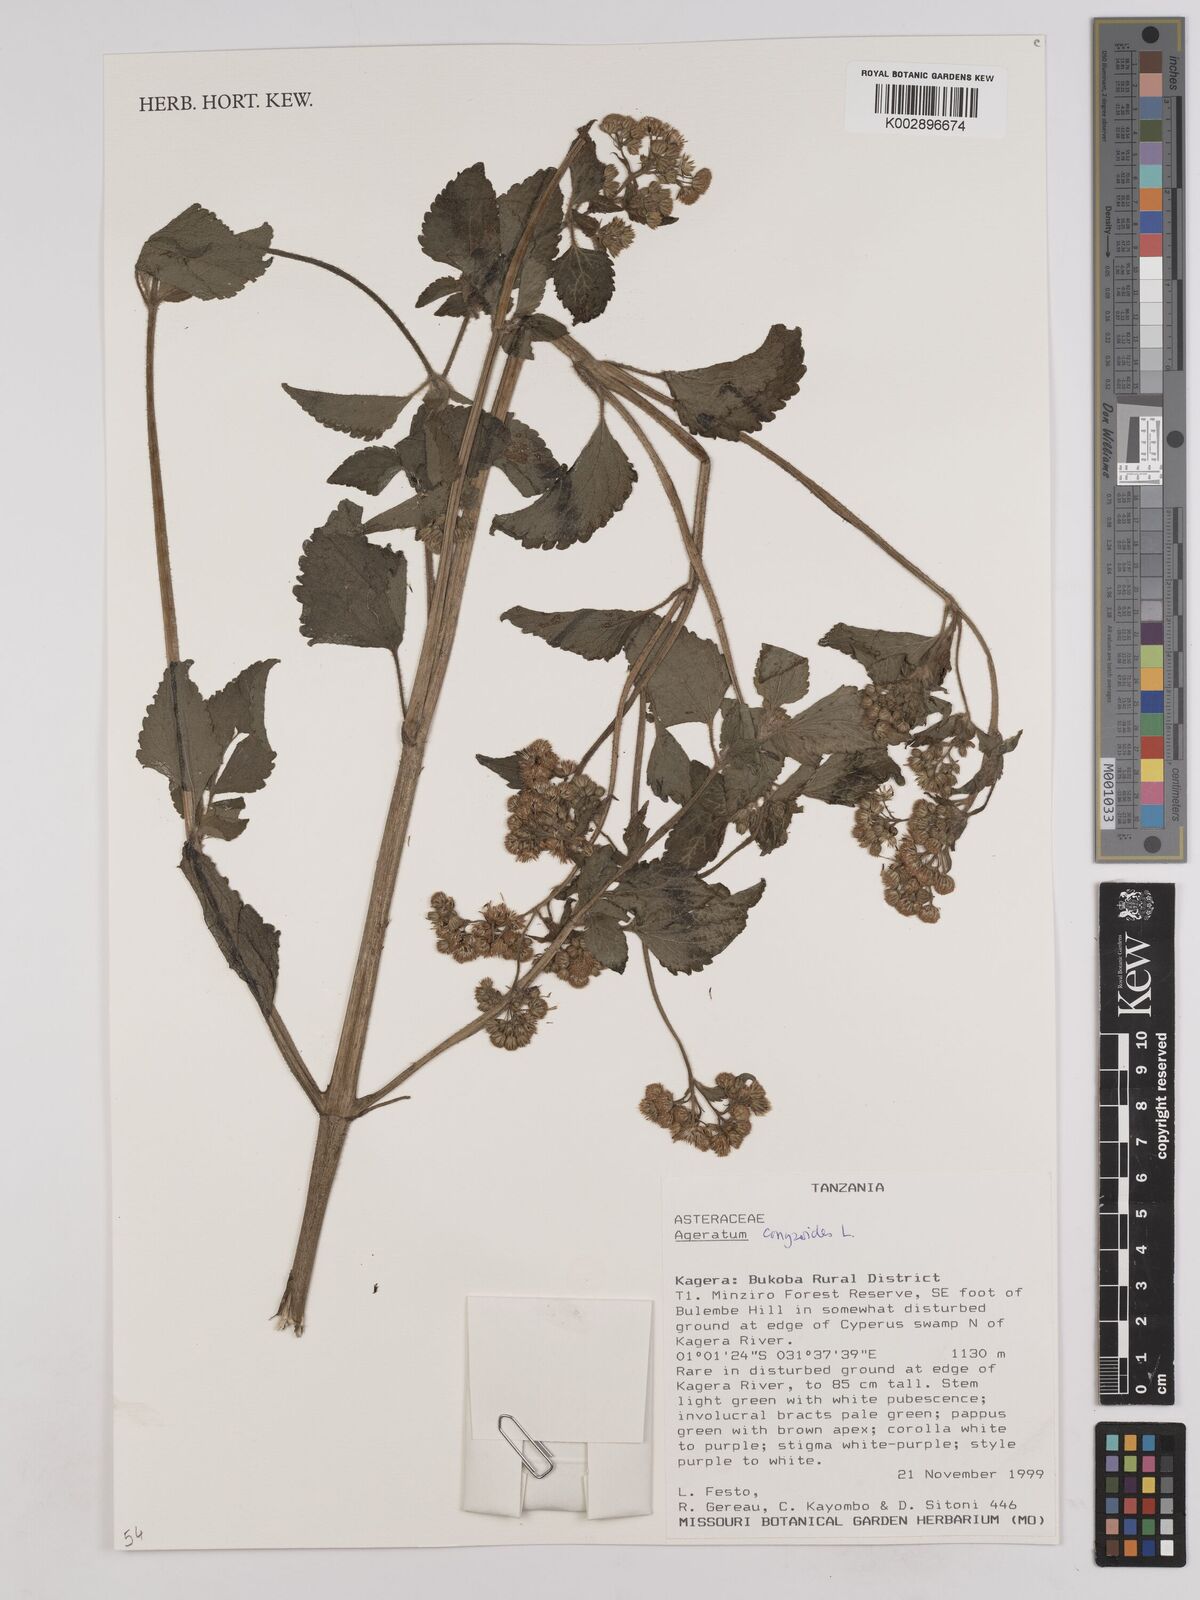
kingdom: Plantae
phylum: Tracheophyta
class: Magnoliopsida
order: Asterales
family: Asteraceae
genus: Ageratum
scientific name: Ageratum conyzoides
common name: Tropical whiteweed
